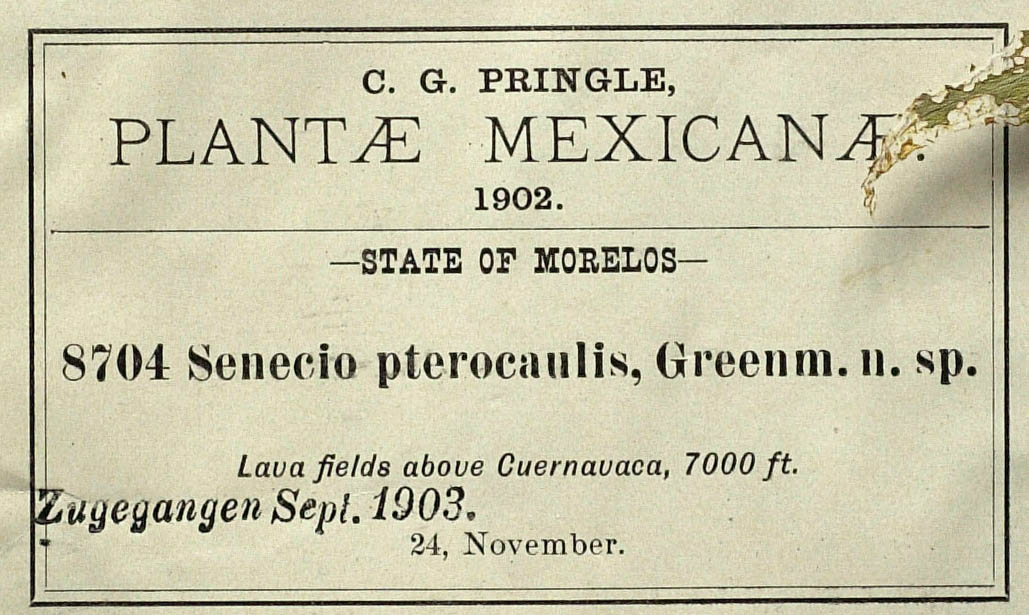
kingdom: Plantae
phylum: Tracheophyta
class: Magnoliopsida
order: Asterales
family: Asteraceae
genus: Packera
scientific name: Packera werneriifolia
